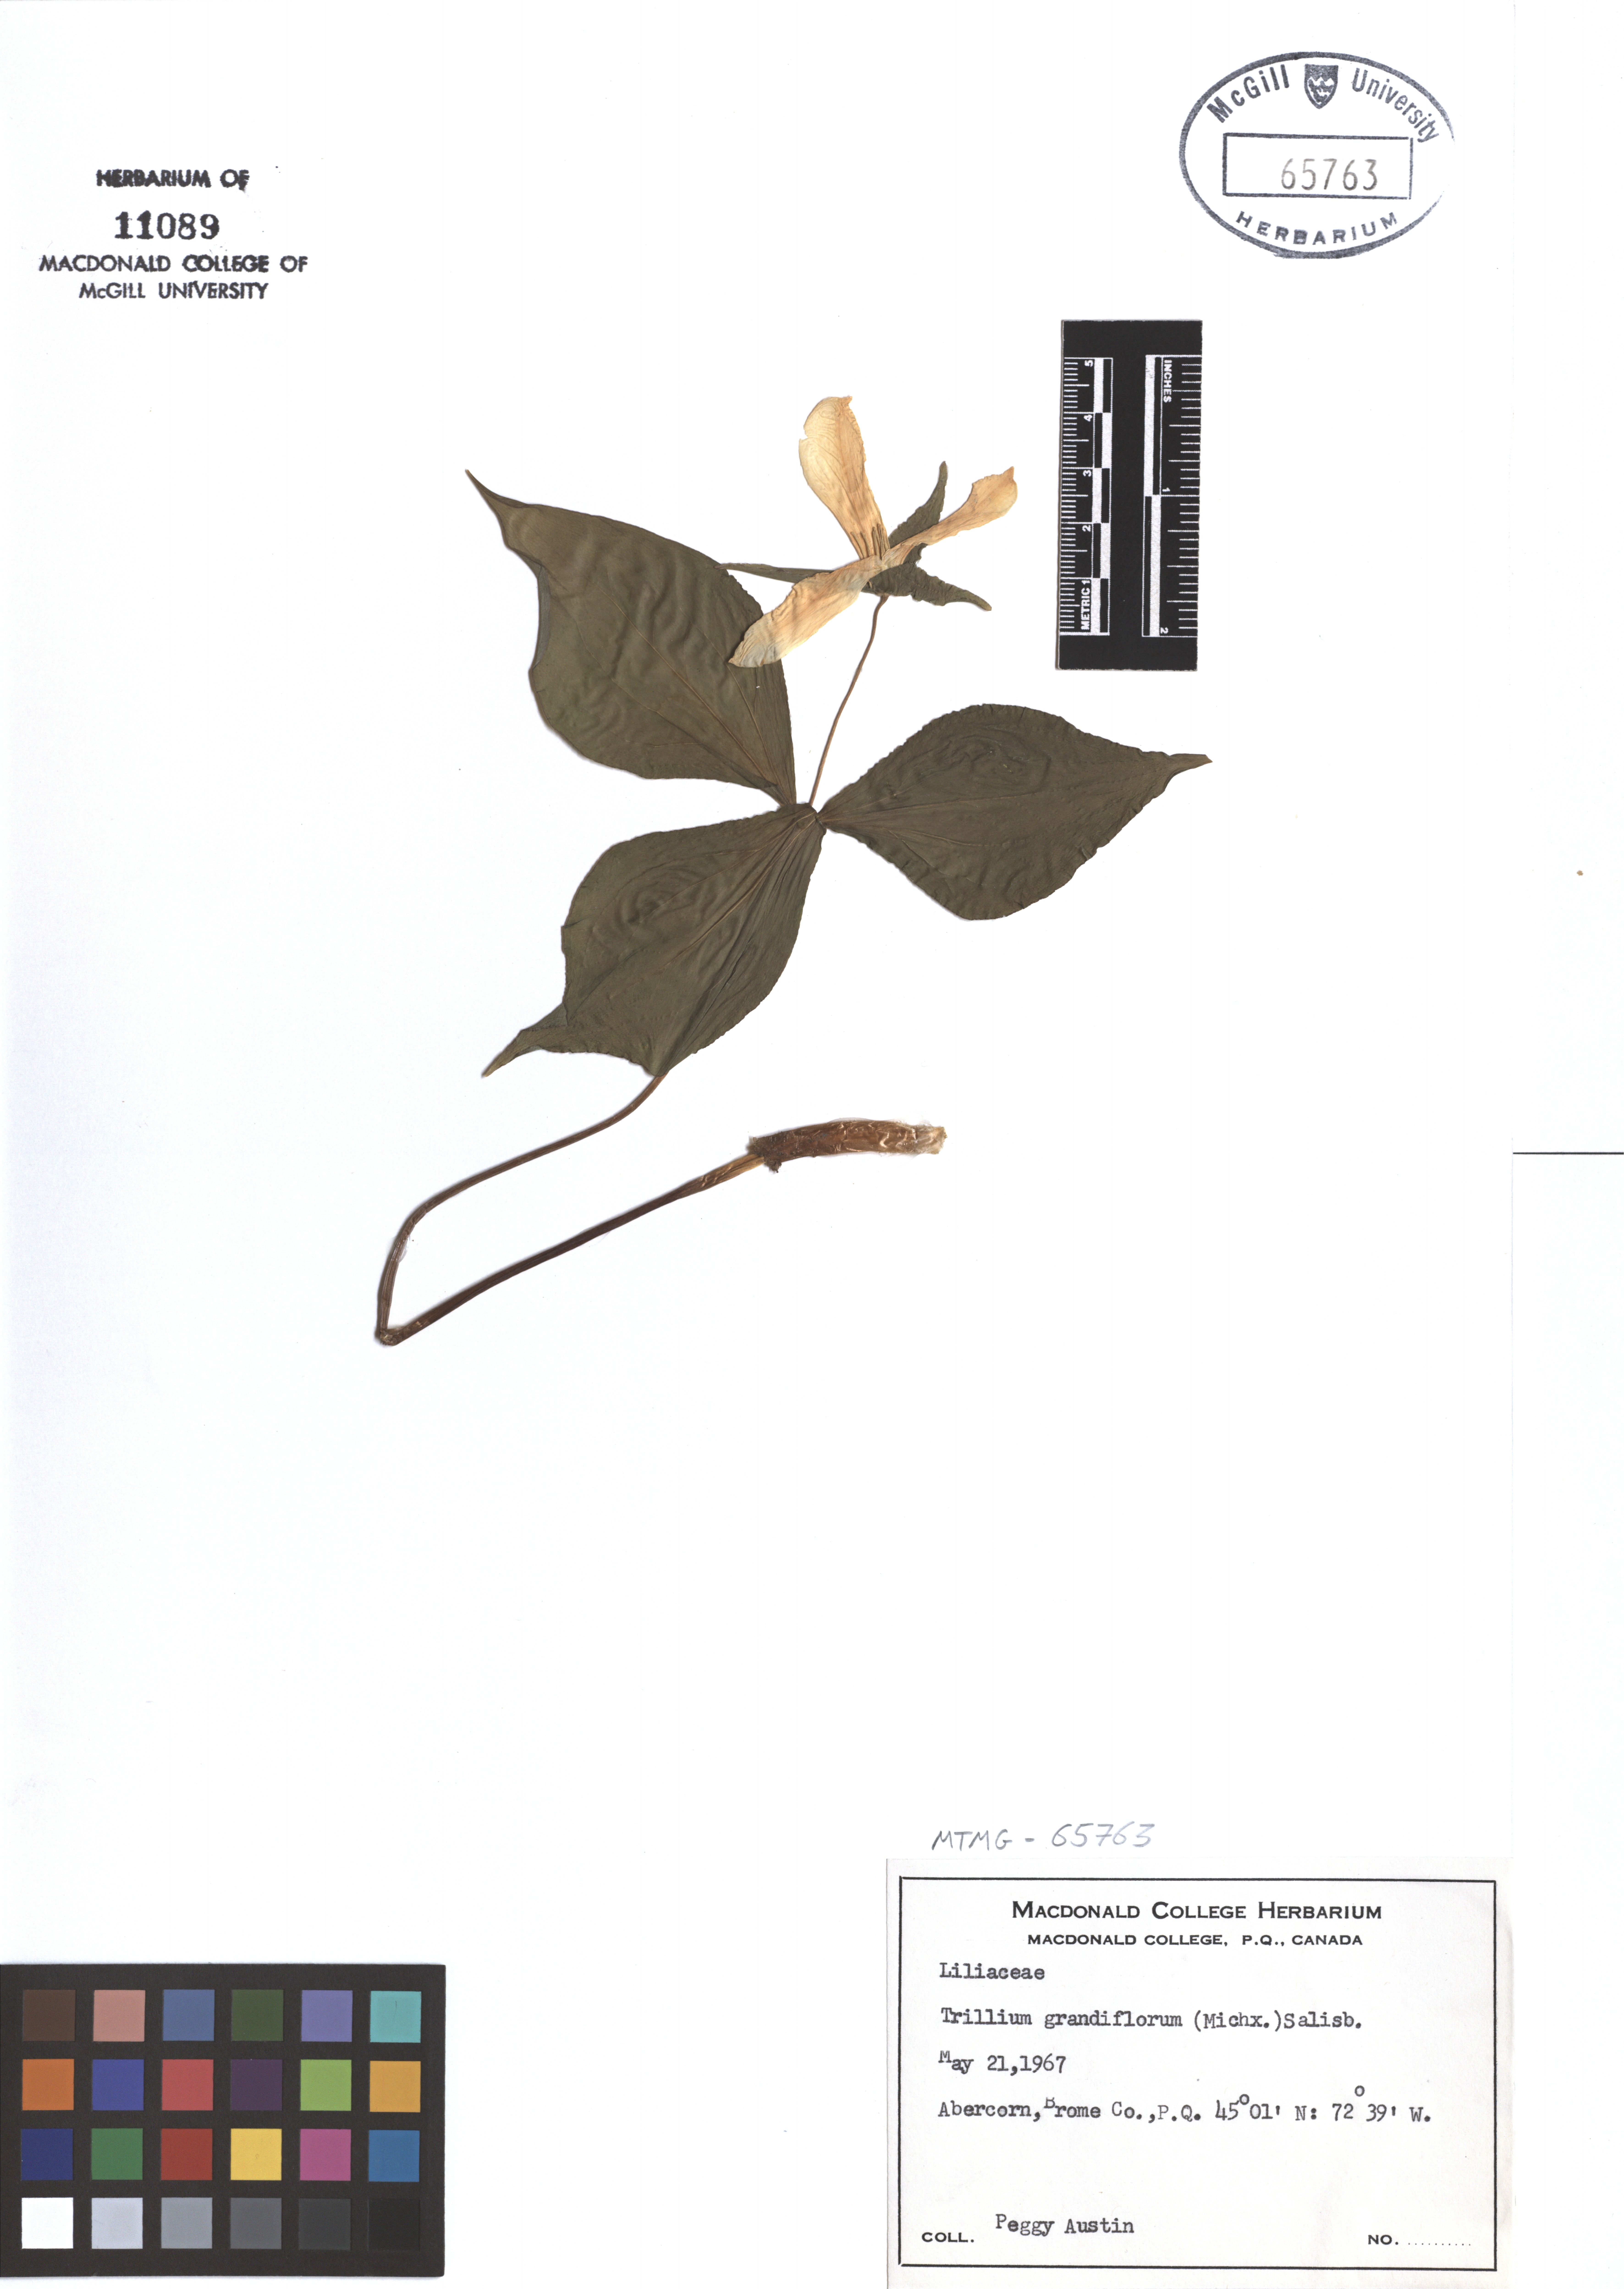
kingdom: Plantae
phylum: Tracheophyta
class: Liliopsida
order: Liliales
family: Melanthiaceae
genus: Trillium
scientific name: Trillium grandiflorum
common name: Great white trillium
